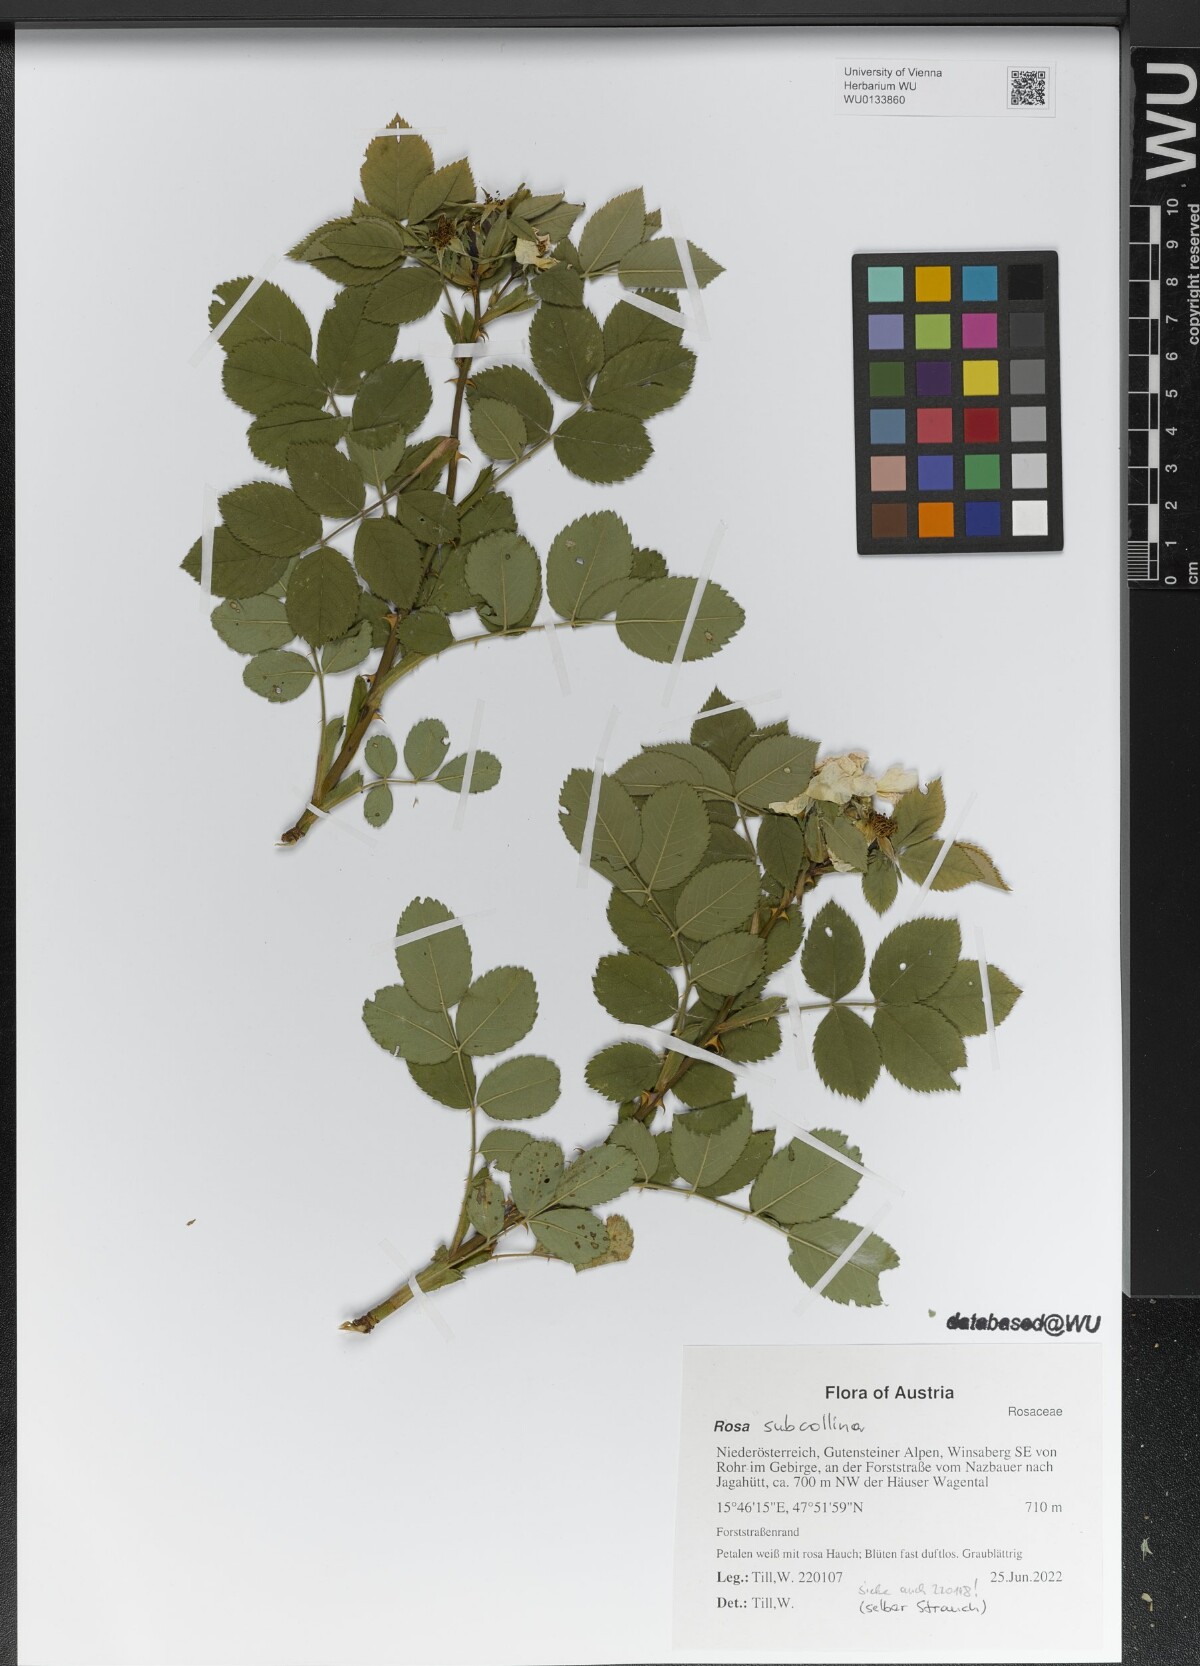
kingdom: Plantae
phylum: Tracheophyta
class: Magnoliopsida
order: Rosales
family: Rosaceae
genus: Rosa
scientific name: Rosa subcollina
